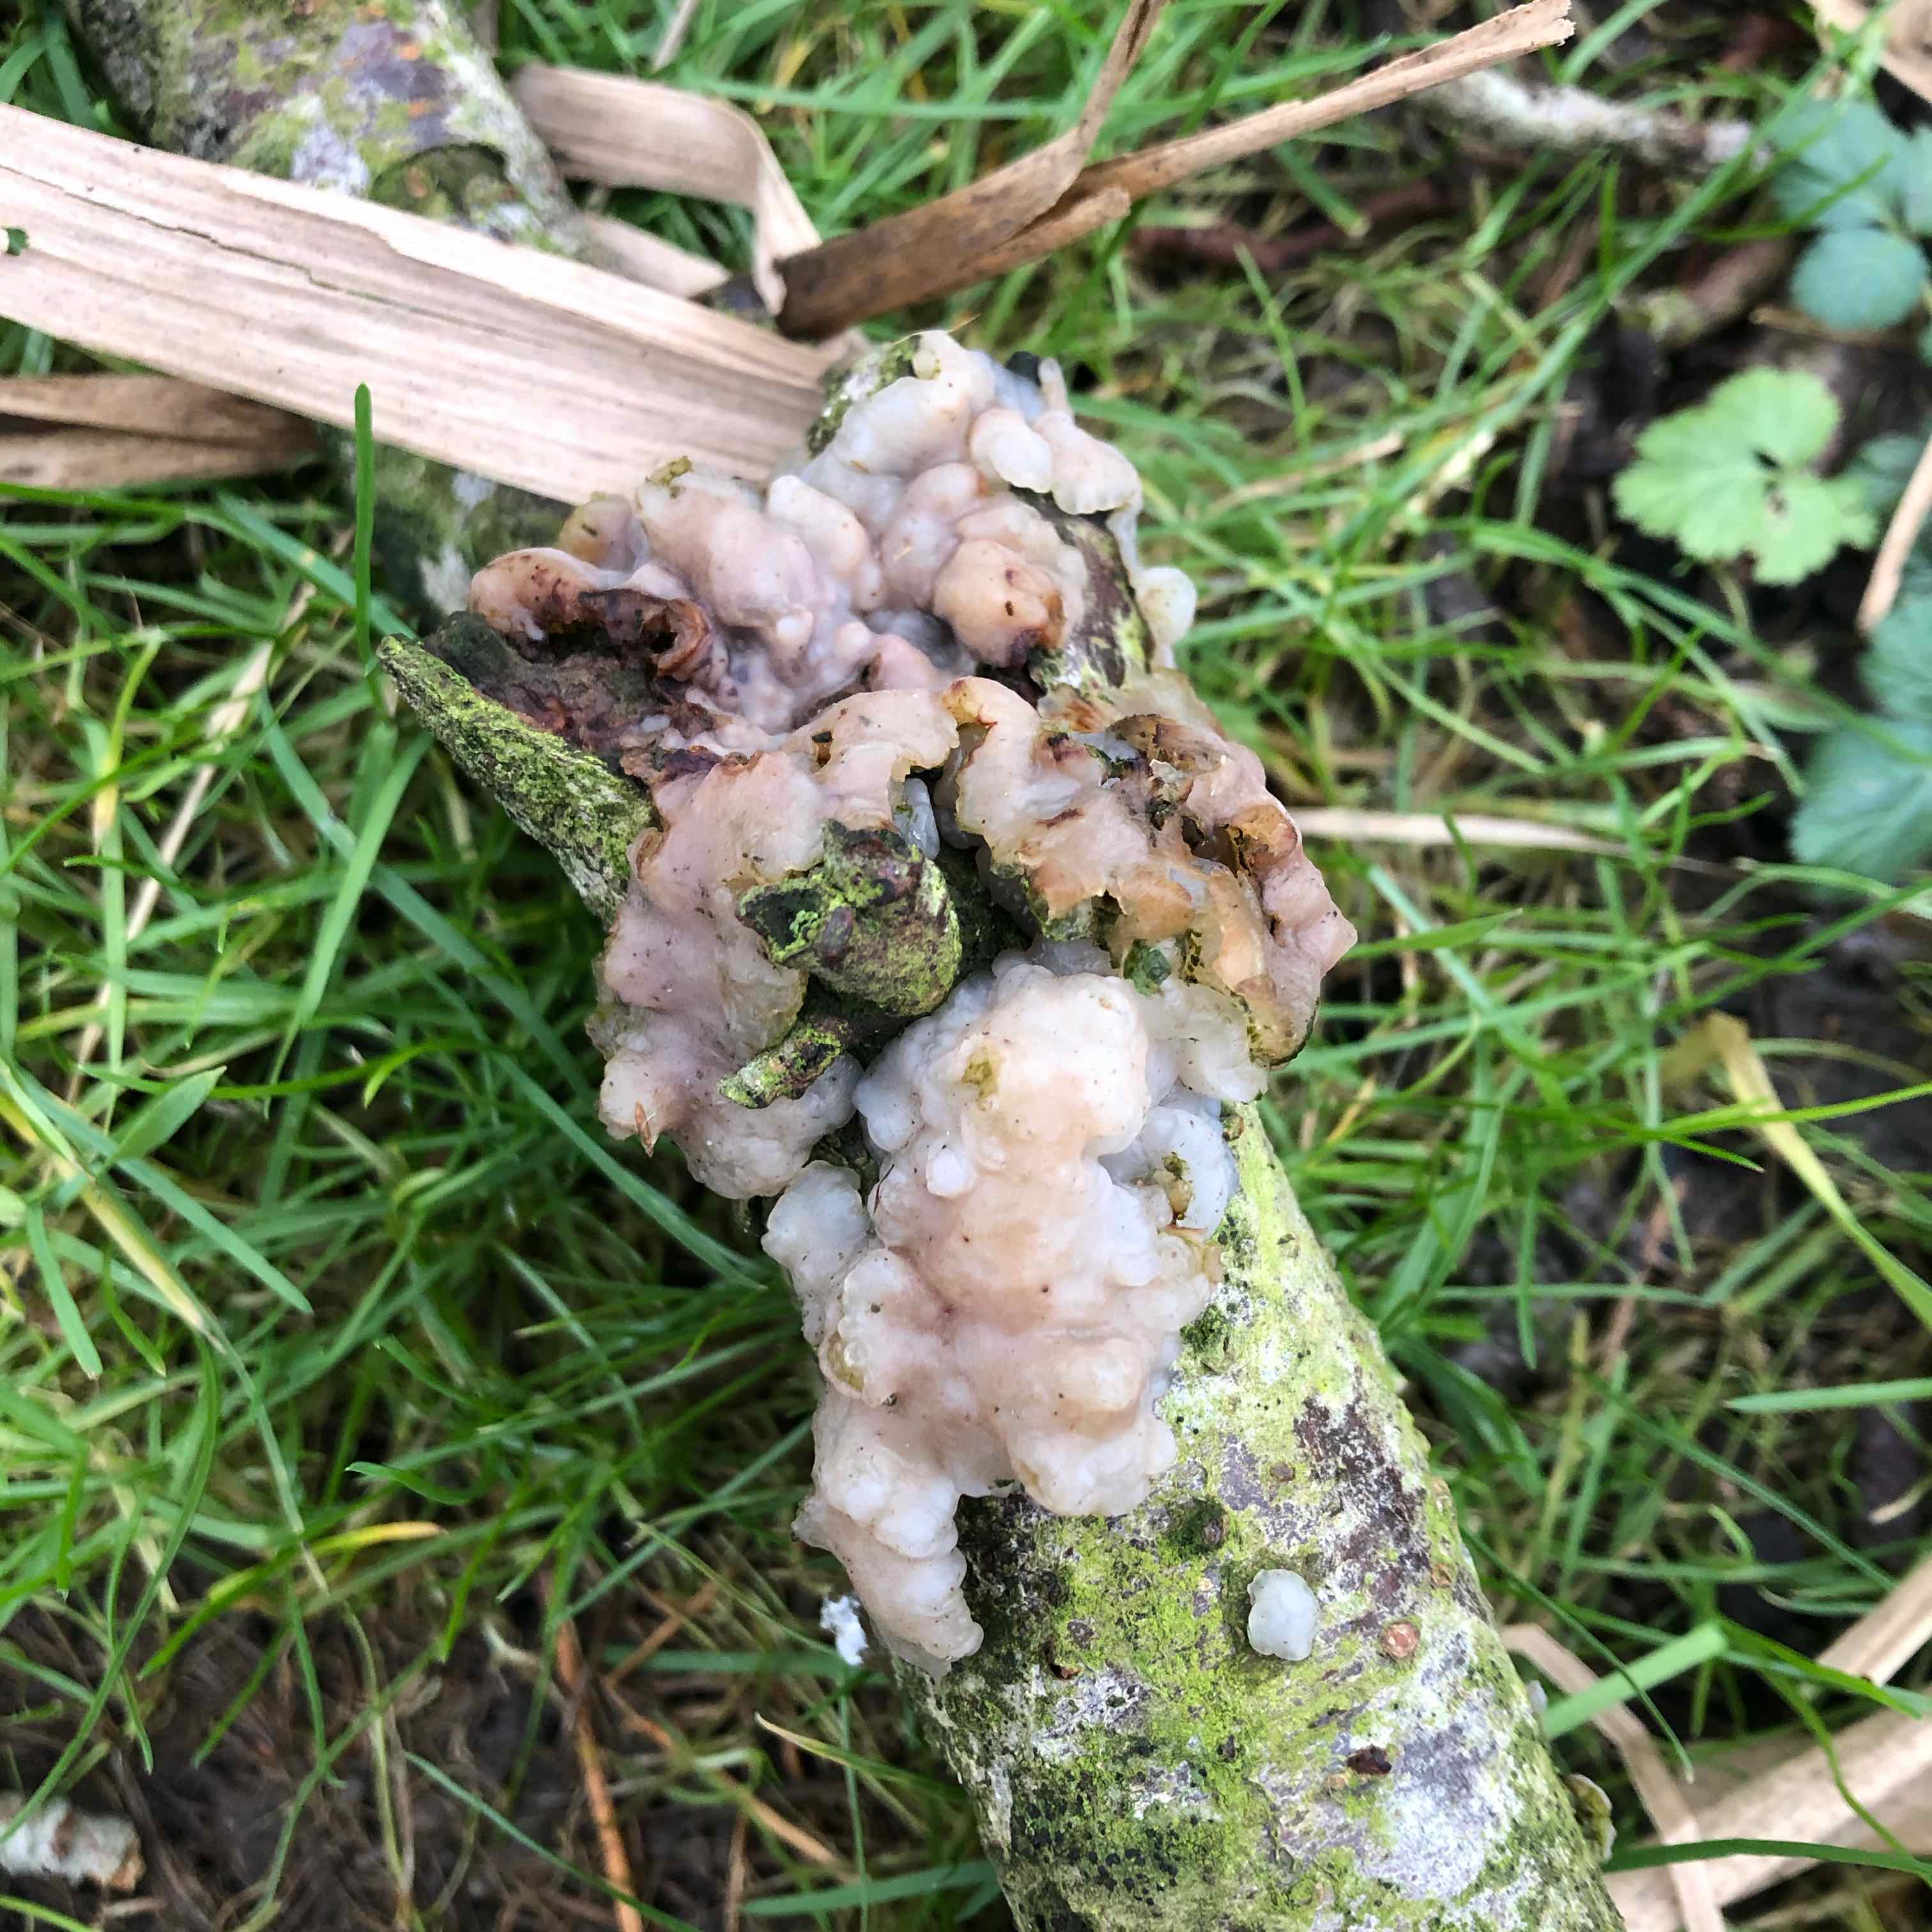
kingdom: Fungi
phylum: Basidiomycota
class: Agaricomycetes
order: Auriculariales
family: Auriculariaceae
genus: Exidia
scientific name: Exidia thuretiana
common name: hvidlig bævretop
